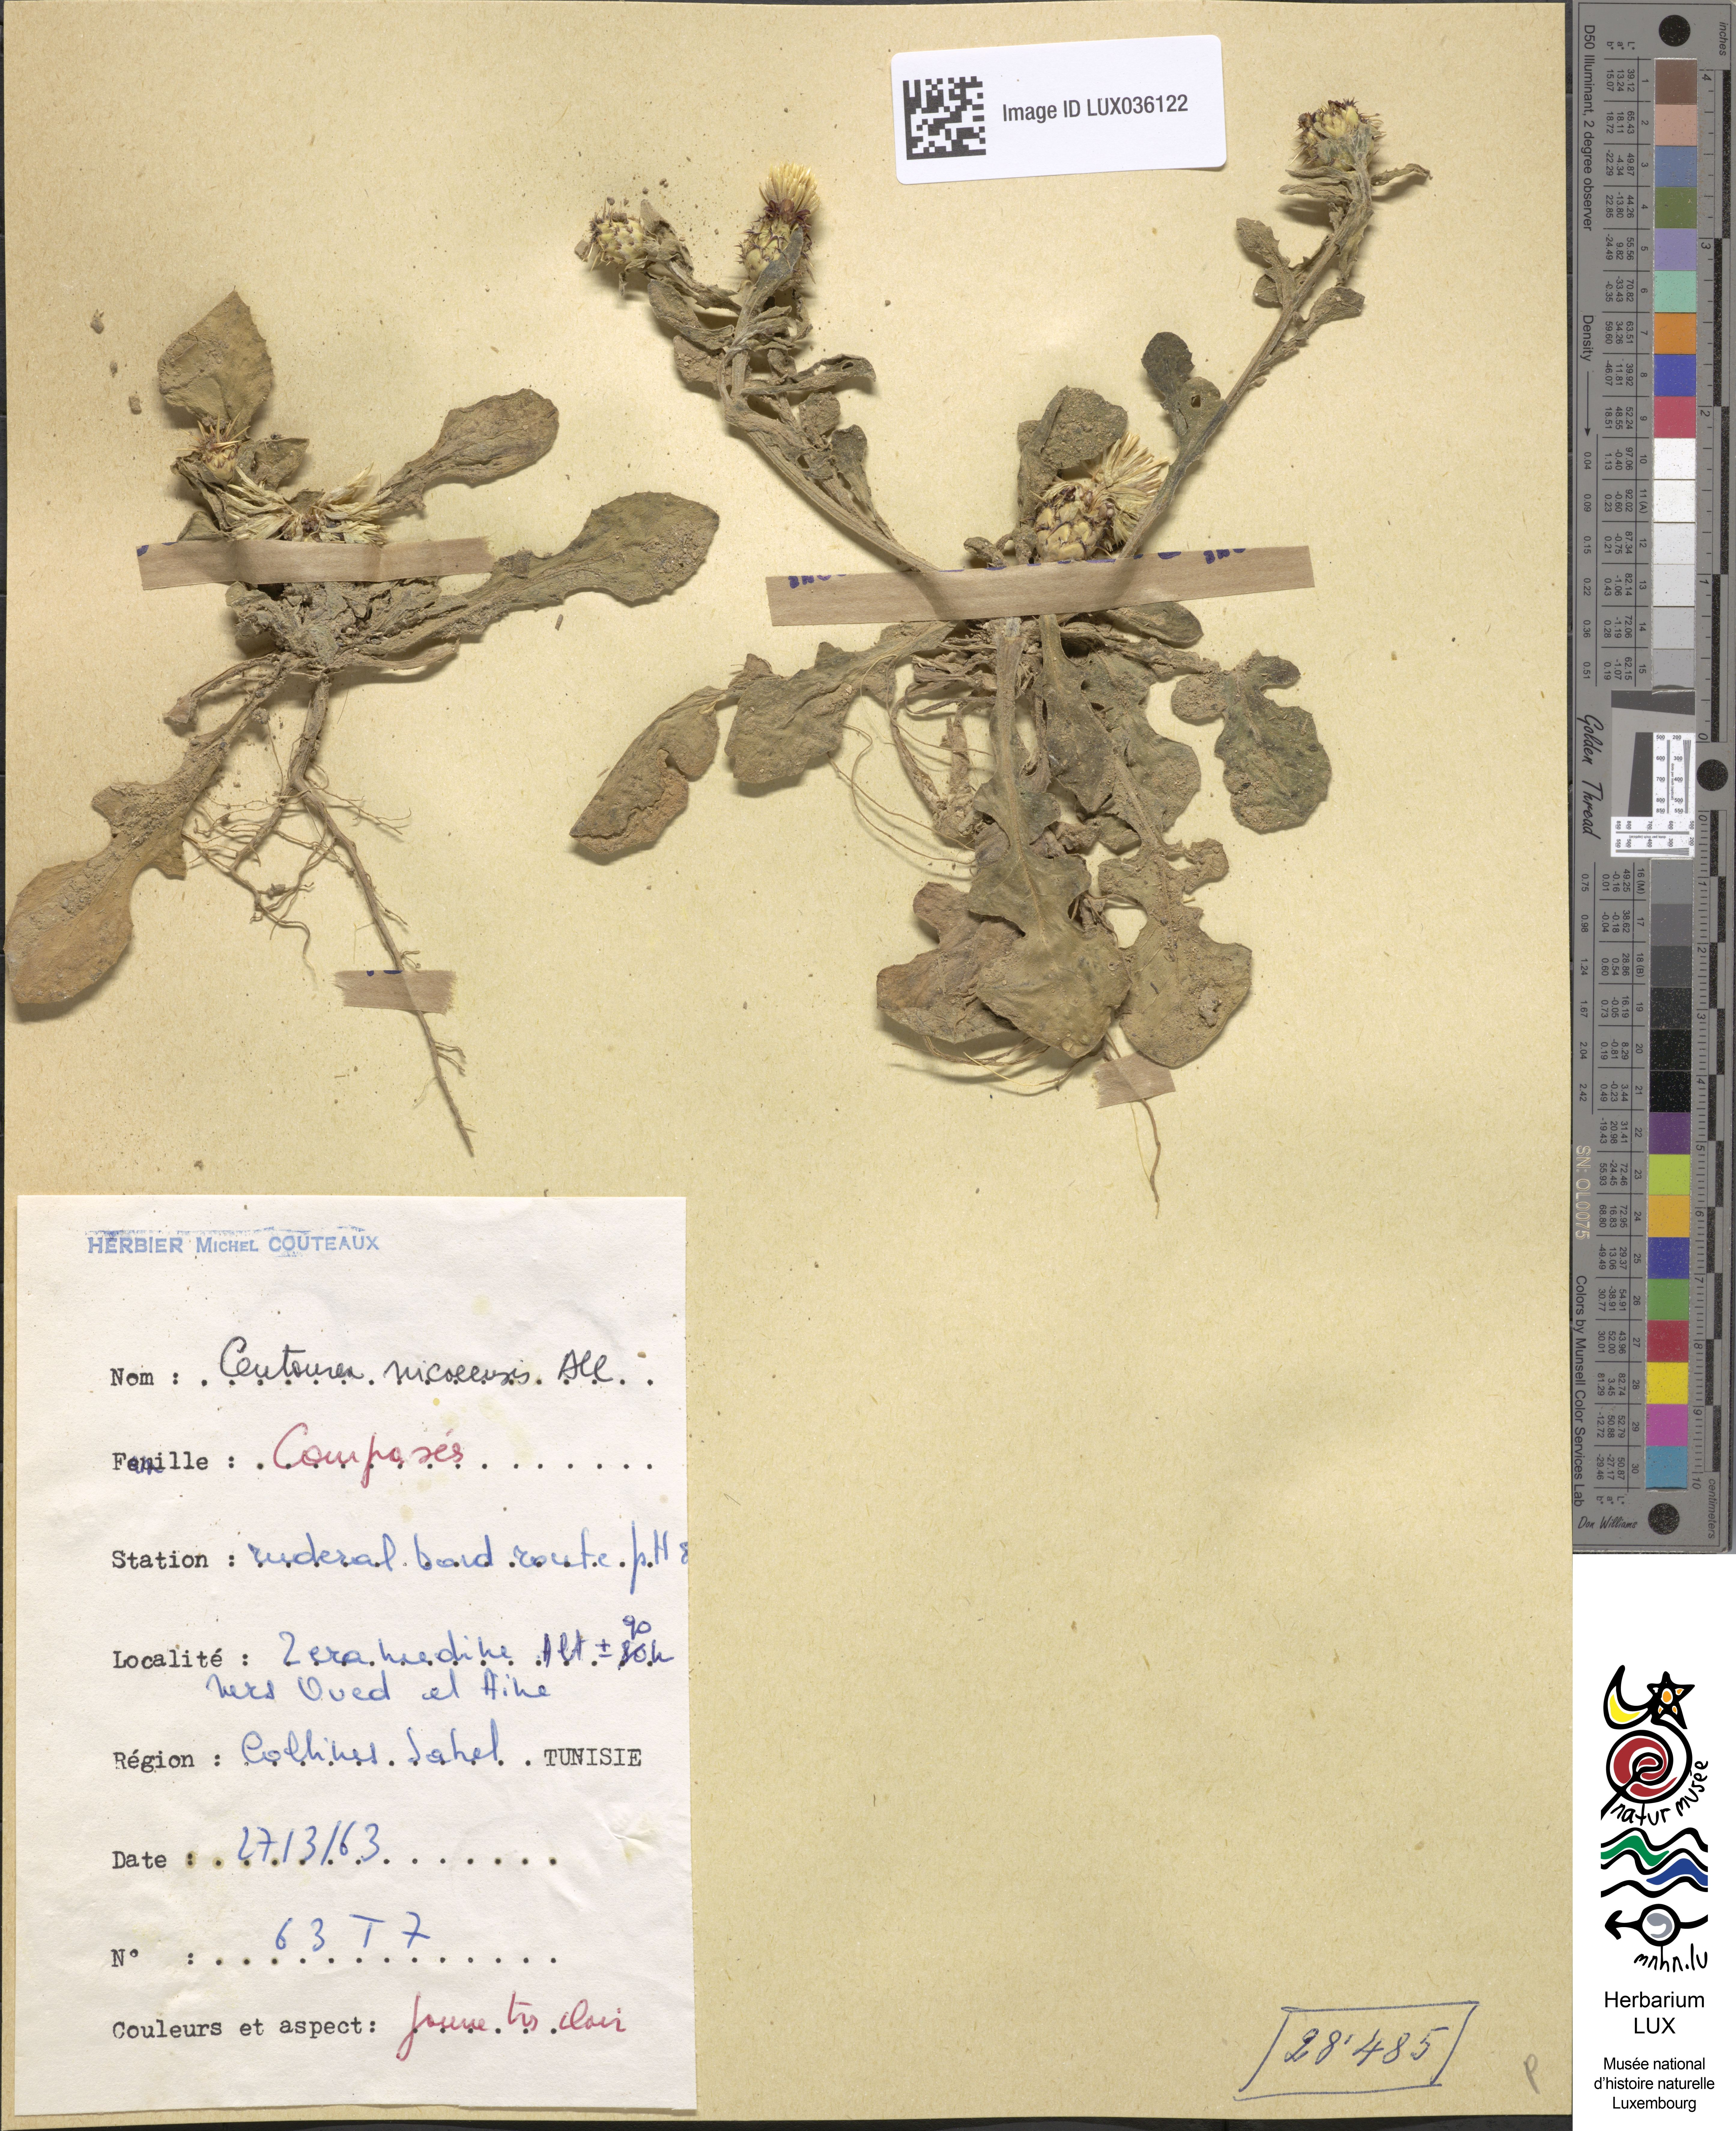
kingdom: Plantae
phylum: Tracheophyta
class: Magnoliopsida
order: Asterales
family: Asteraceae
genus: Centaurea
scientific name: Centaurea sicula
